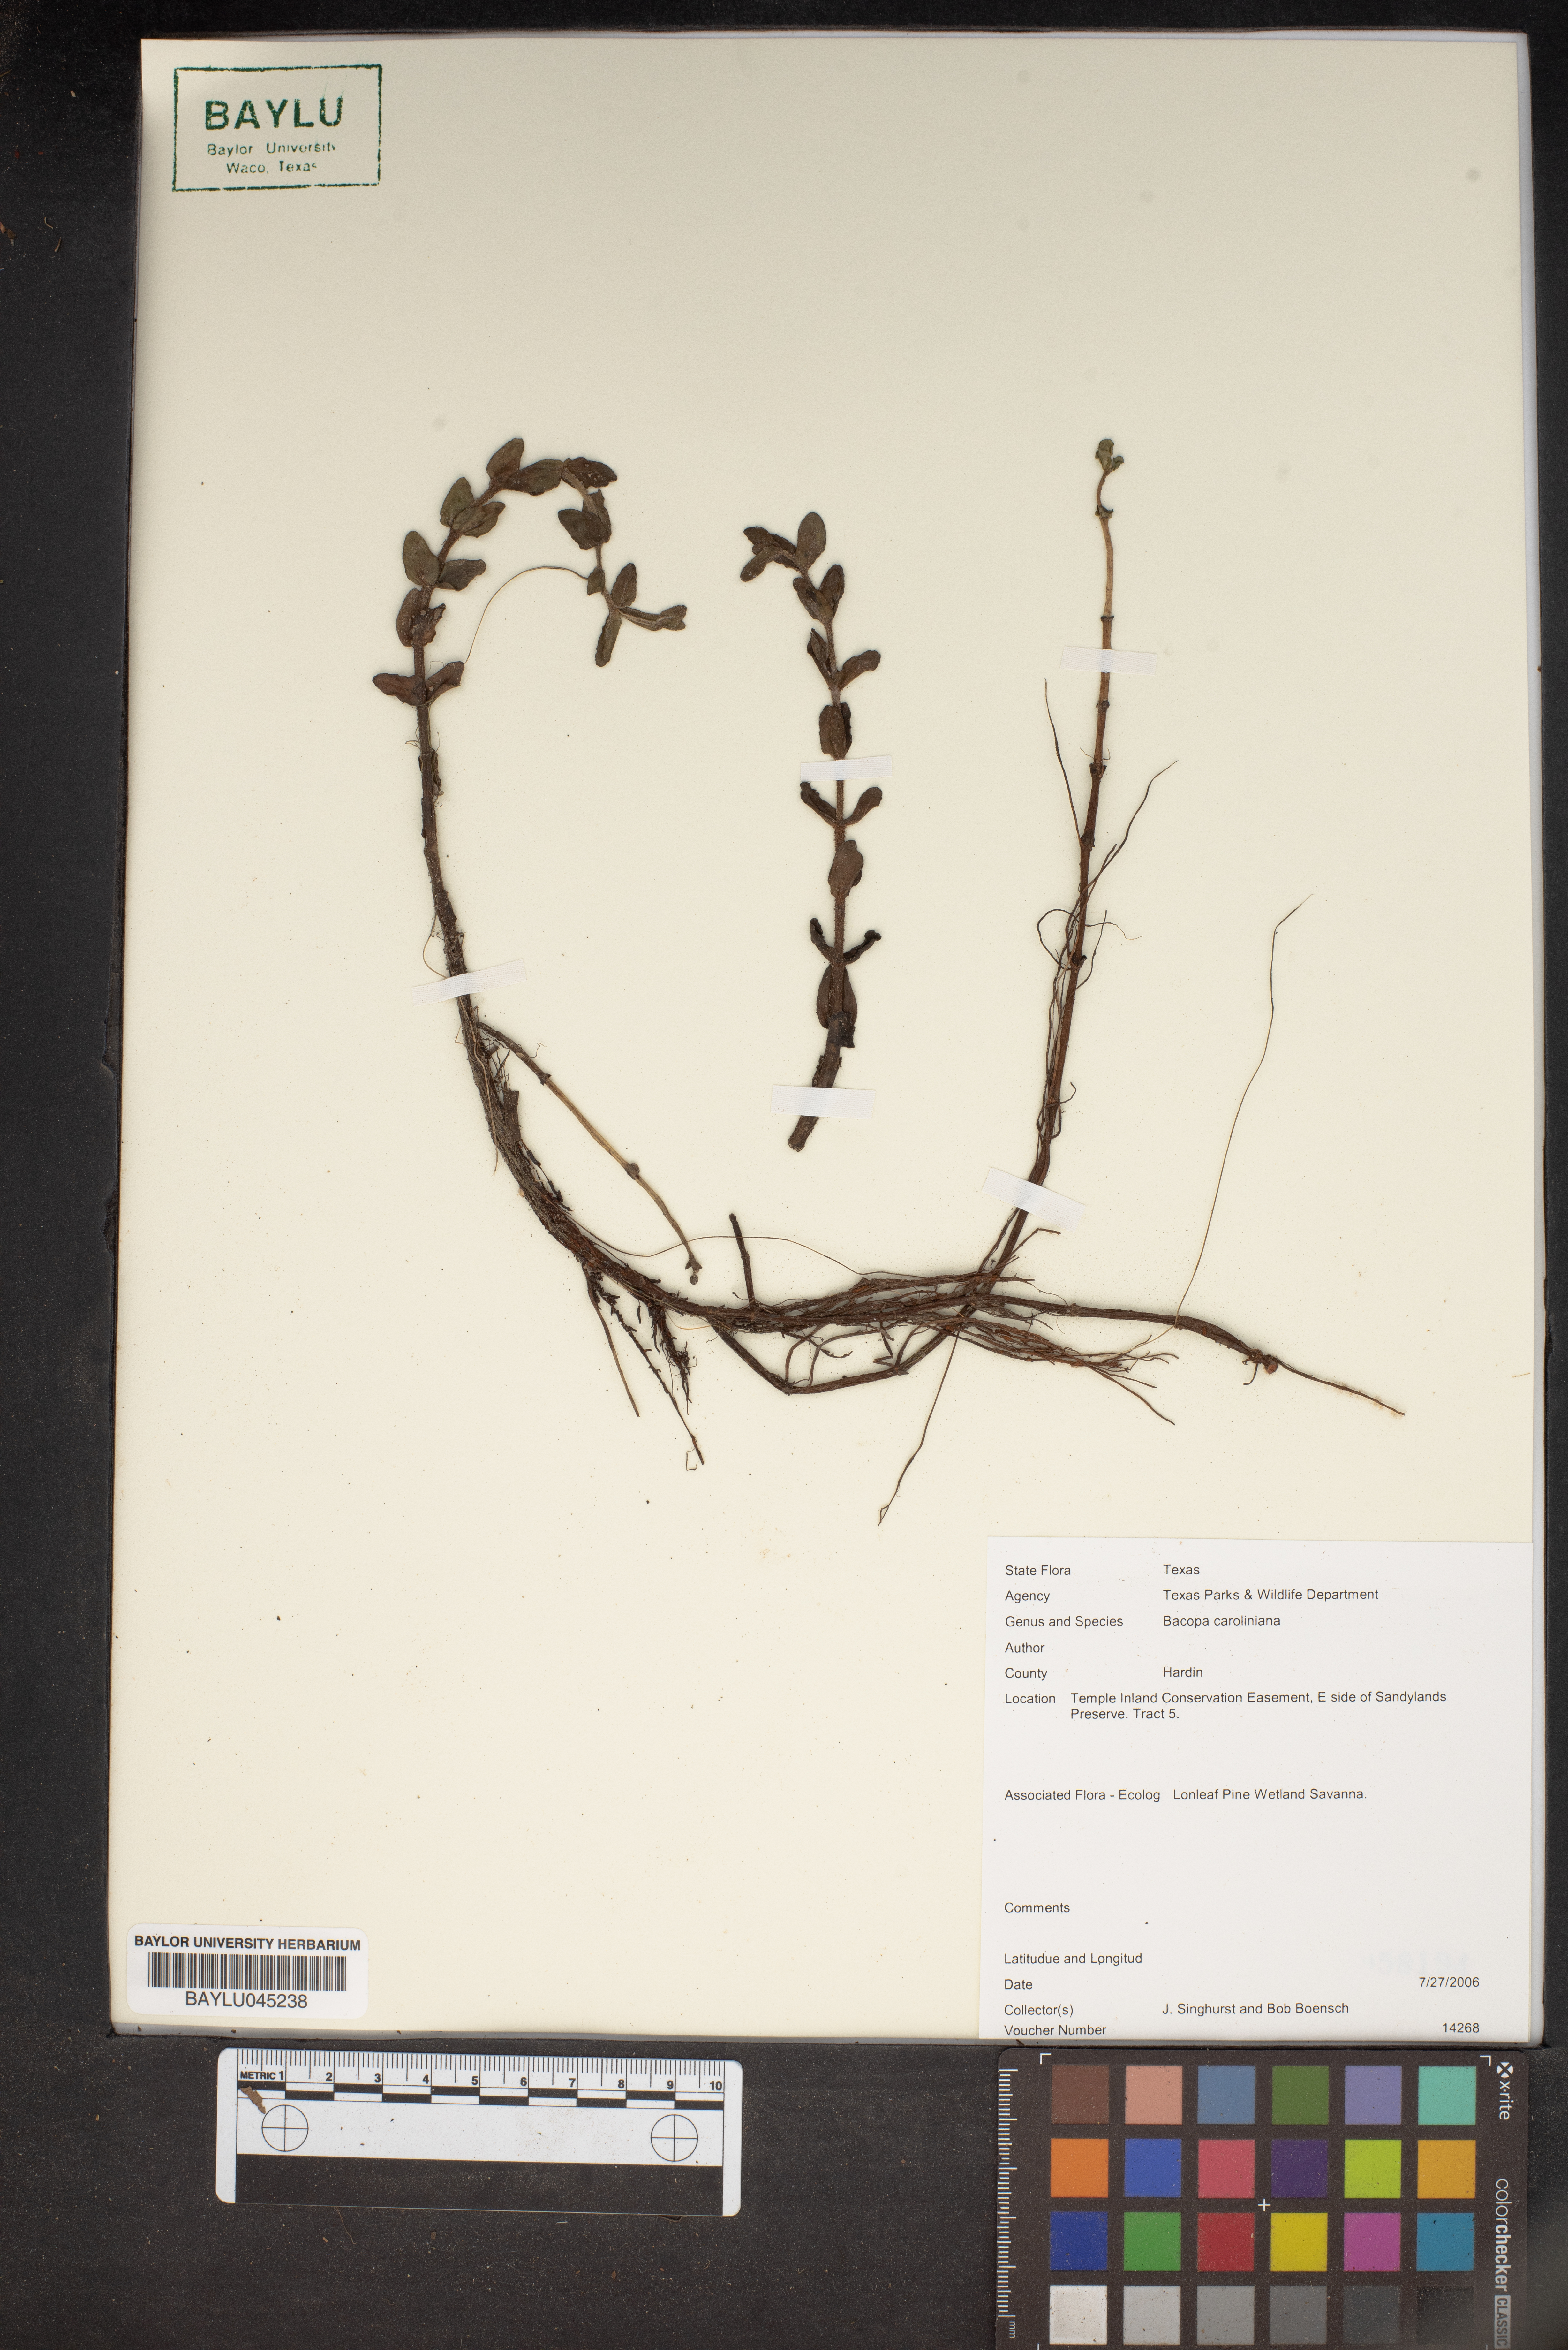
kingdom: Plantae
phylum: Tracheophyta
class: Magnoliopsida
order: Lamiales
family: Plantaginaceae
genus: Bacopa
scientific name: Bacopa caroliniana
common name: Lemon bacopa
